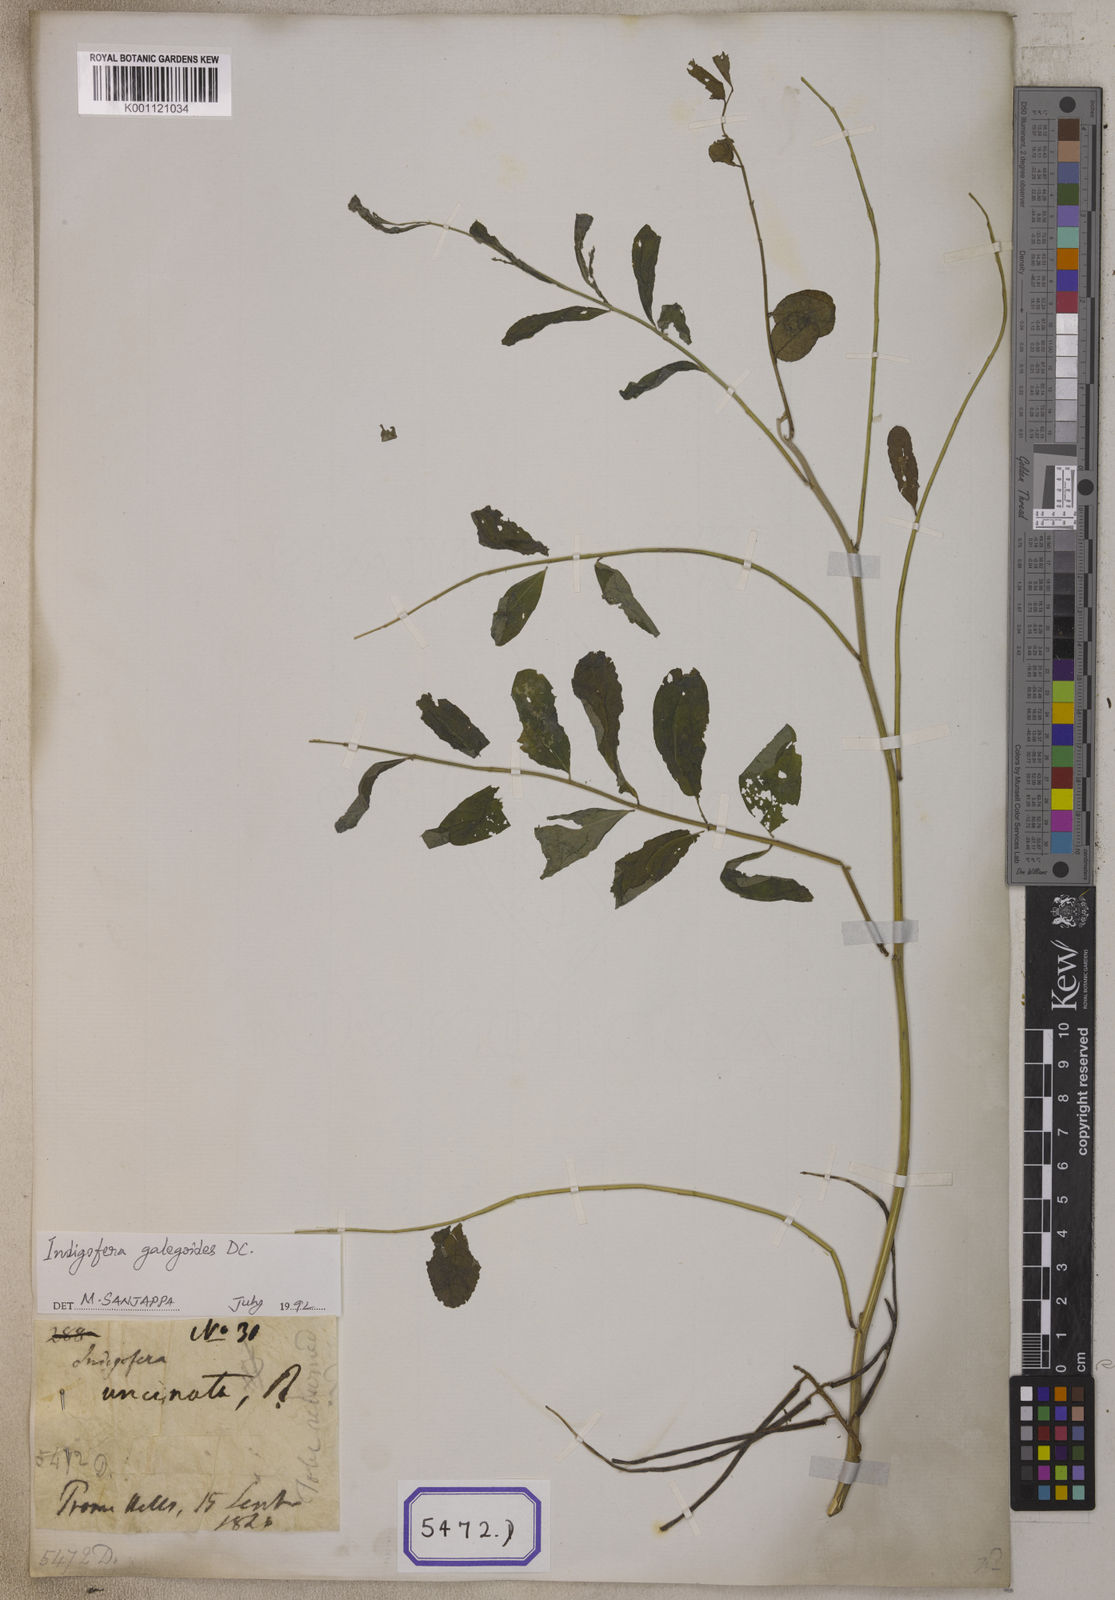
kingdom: Plantae
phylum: Tracheophyta
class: Magnoliopsida
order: Fabales
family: Fabaceae
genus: Indigofera
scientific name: Indigofera galegoides
